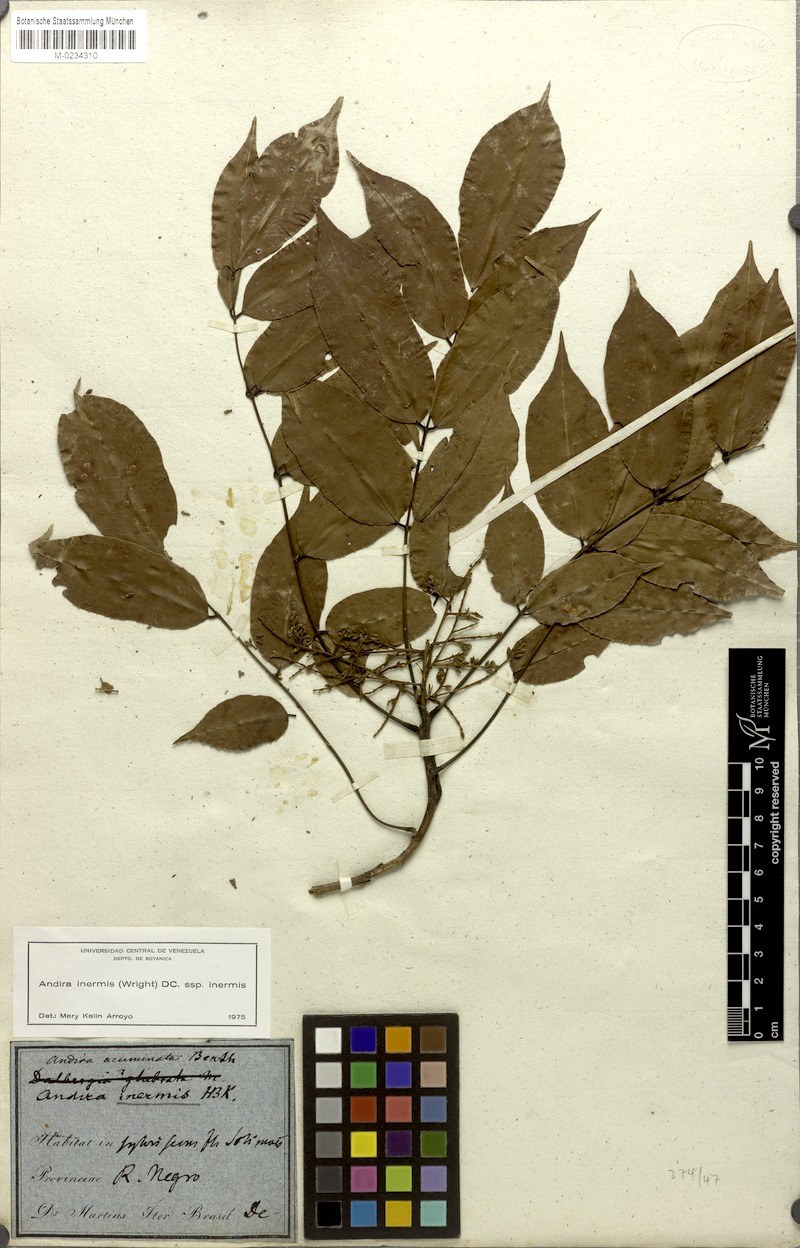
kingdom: Plantae
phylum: Tracheophyta
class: Magnoliopsida
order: Fabales
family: Fabaceae
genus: Andira
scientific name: Andira inermis
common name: Angelin
